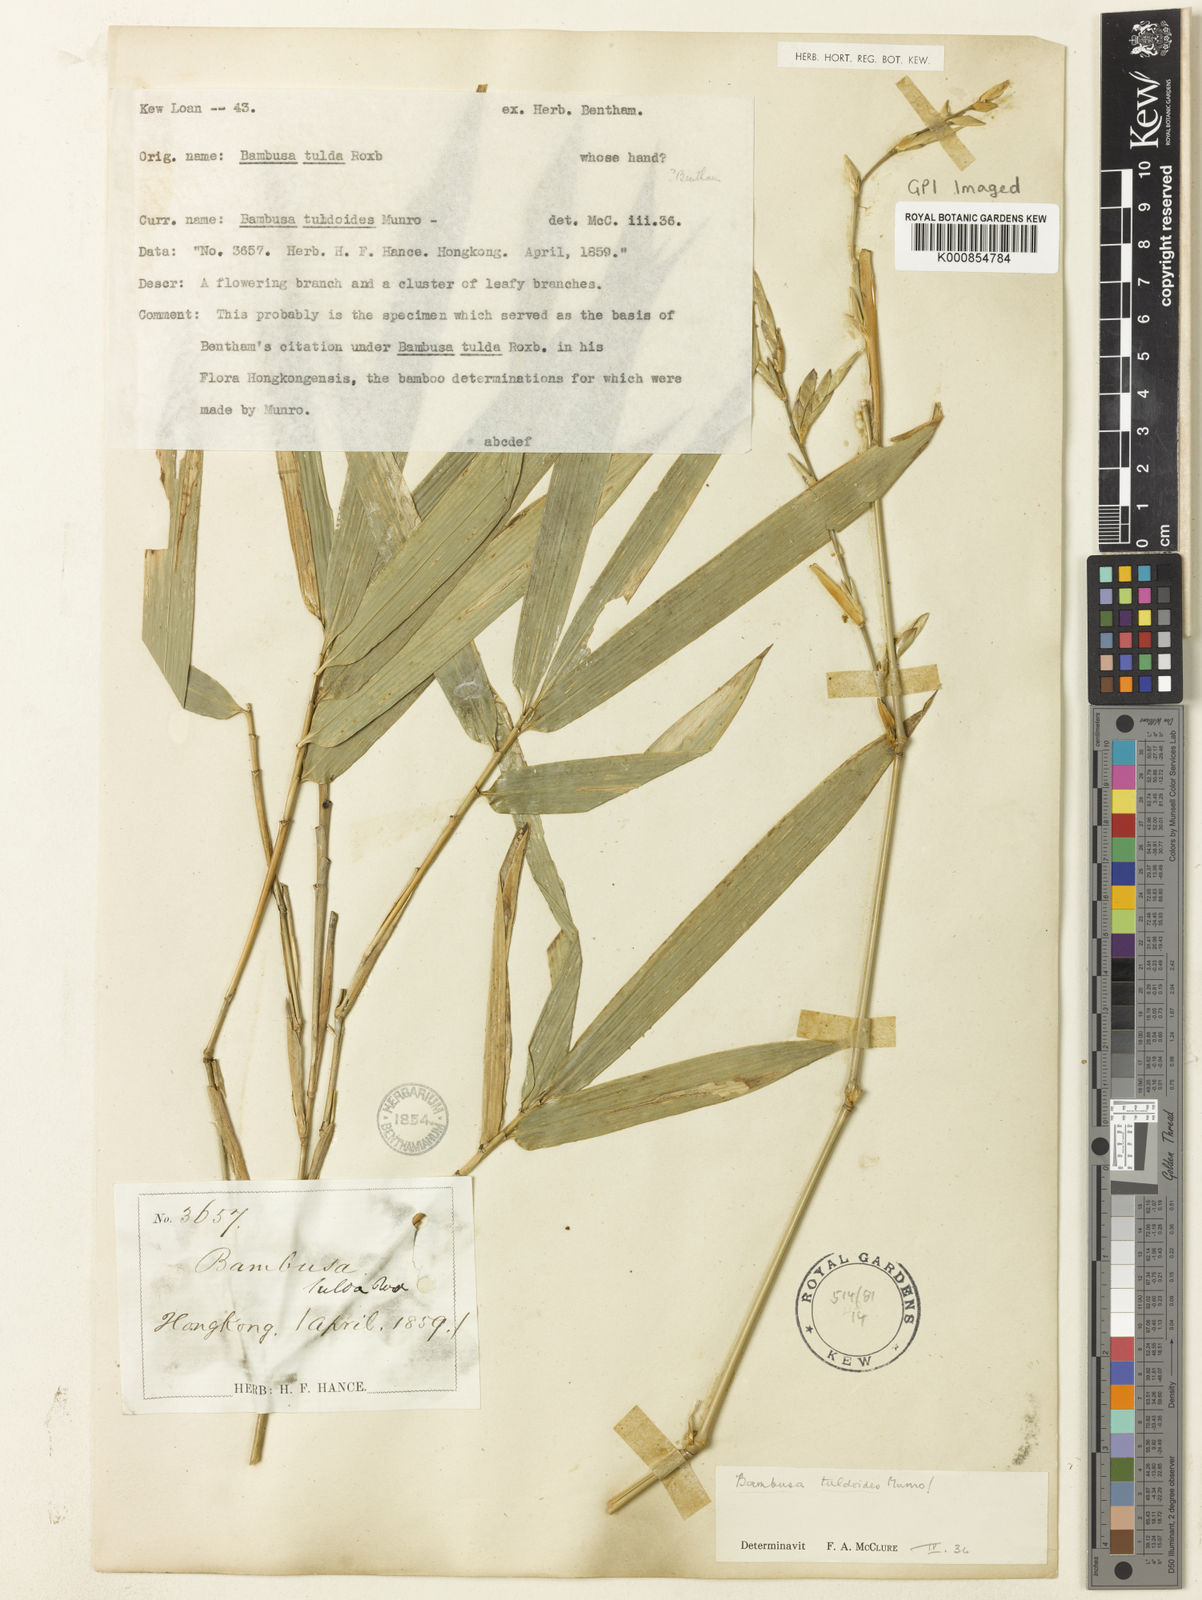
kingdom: Plantae
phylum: Tracheophyta
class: Liliopsida
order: Poales
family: Poaceae
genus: Bambusa
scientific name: Bambusa tuldoides
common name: Verdant bamboo
